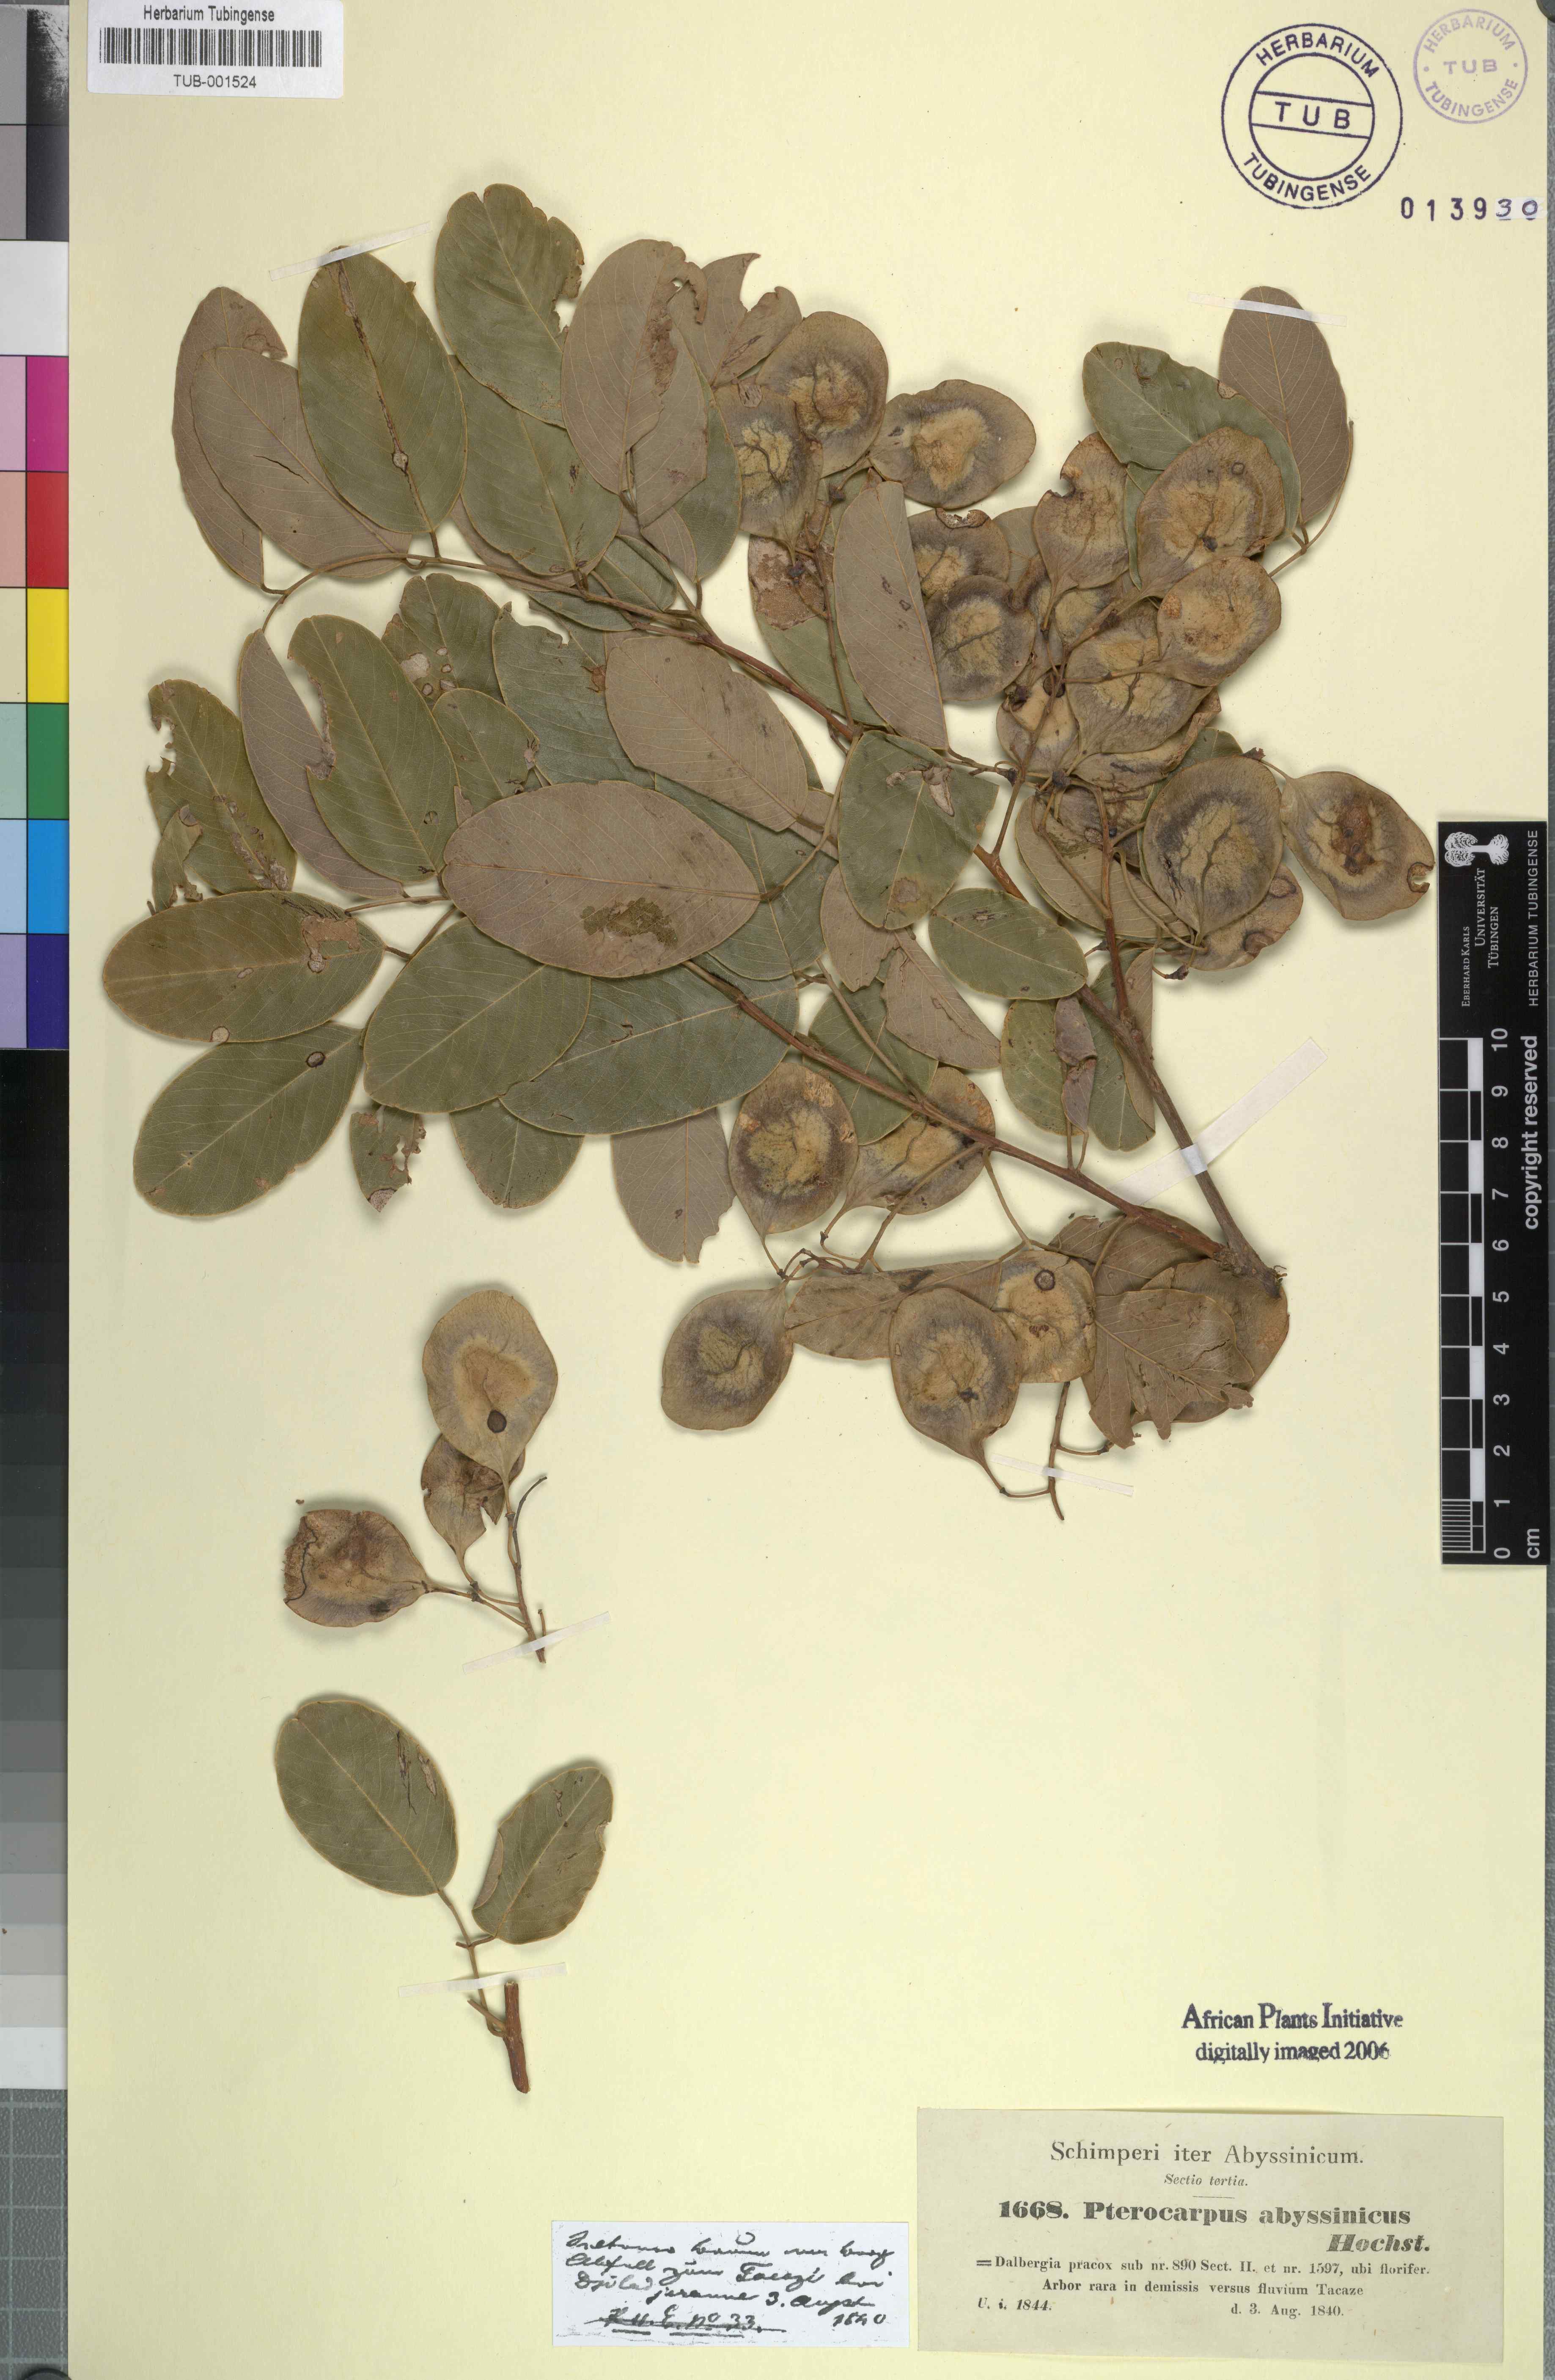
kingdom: Plantae
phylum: Tracheophyta
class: Magnoliopsida
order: Fabales
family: Fabaceae
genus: Pterocarpus
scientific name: Pterocarpus lucens
